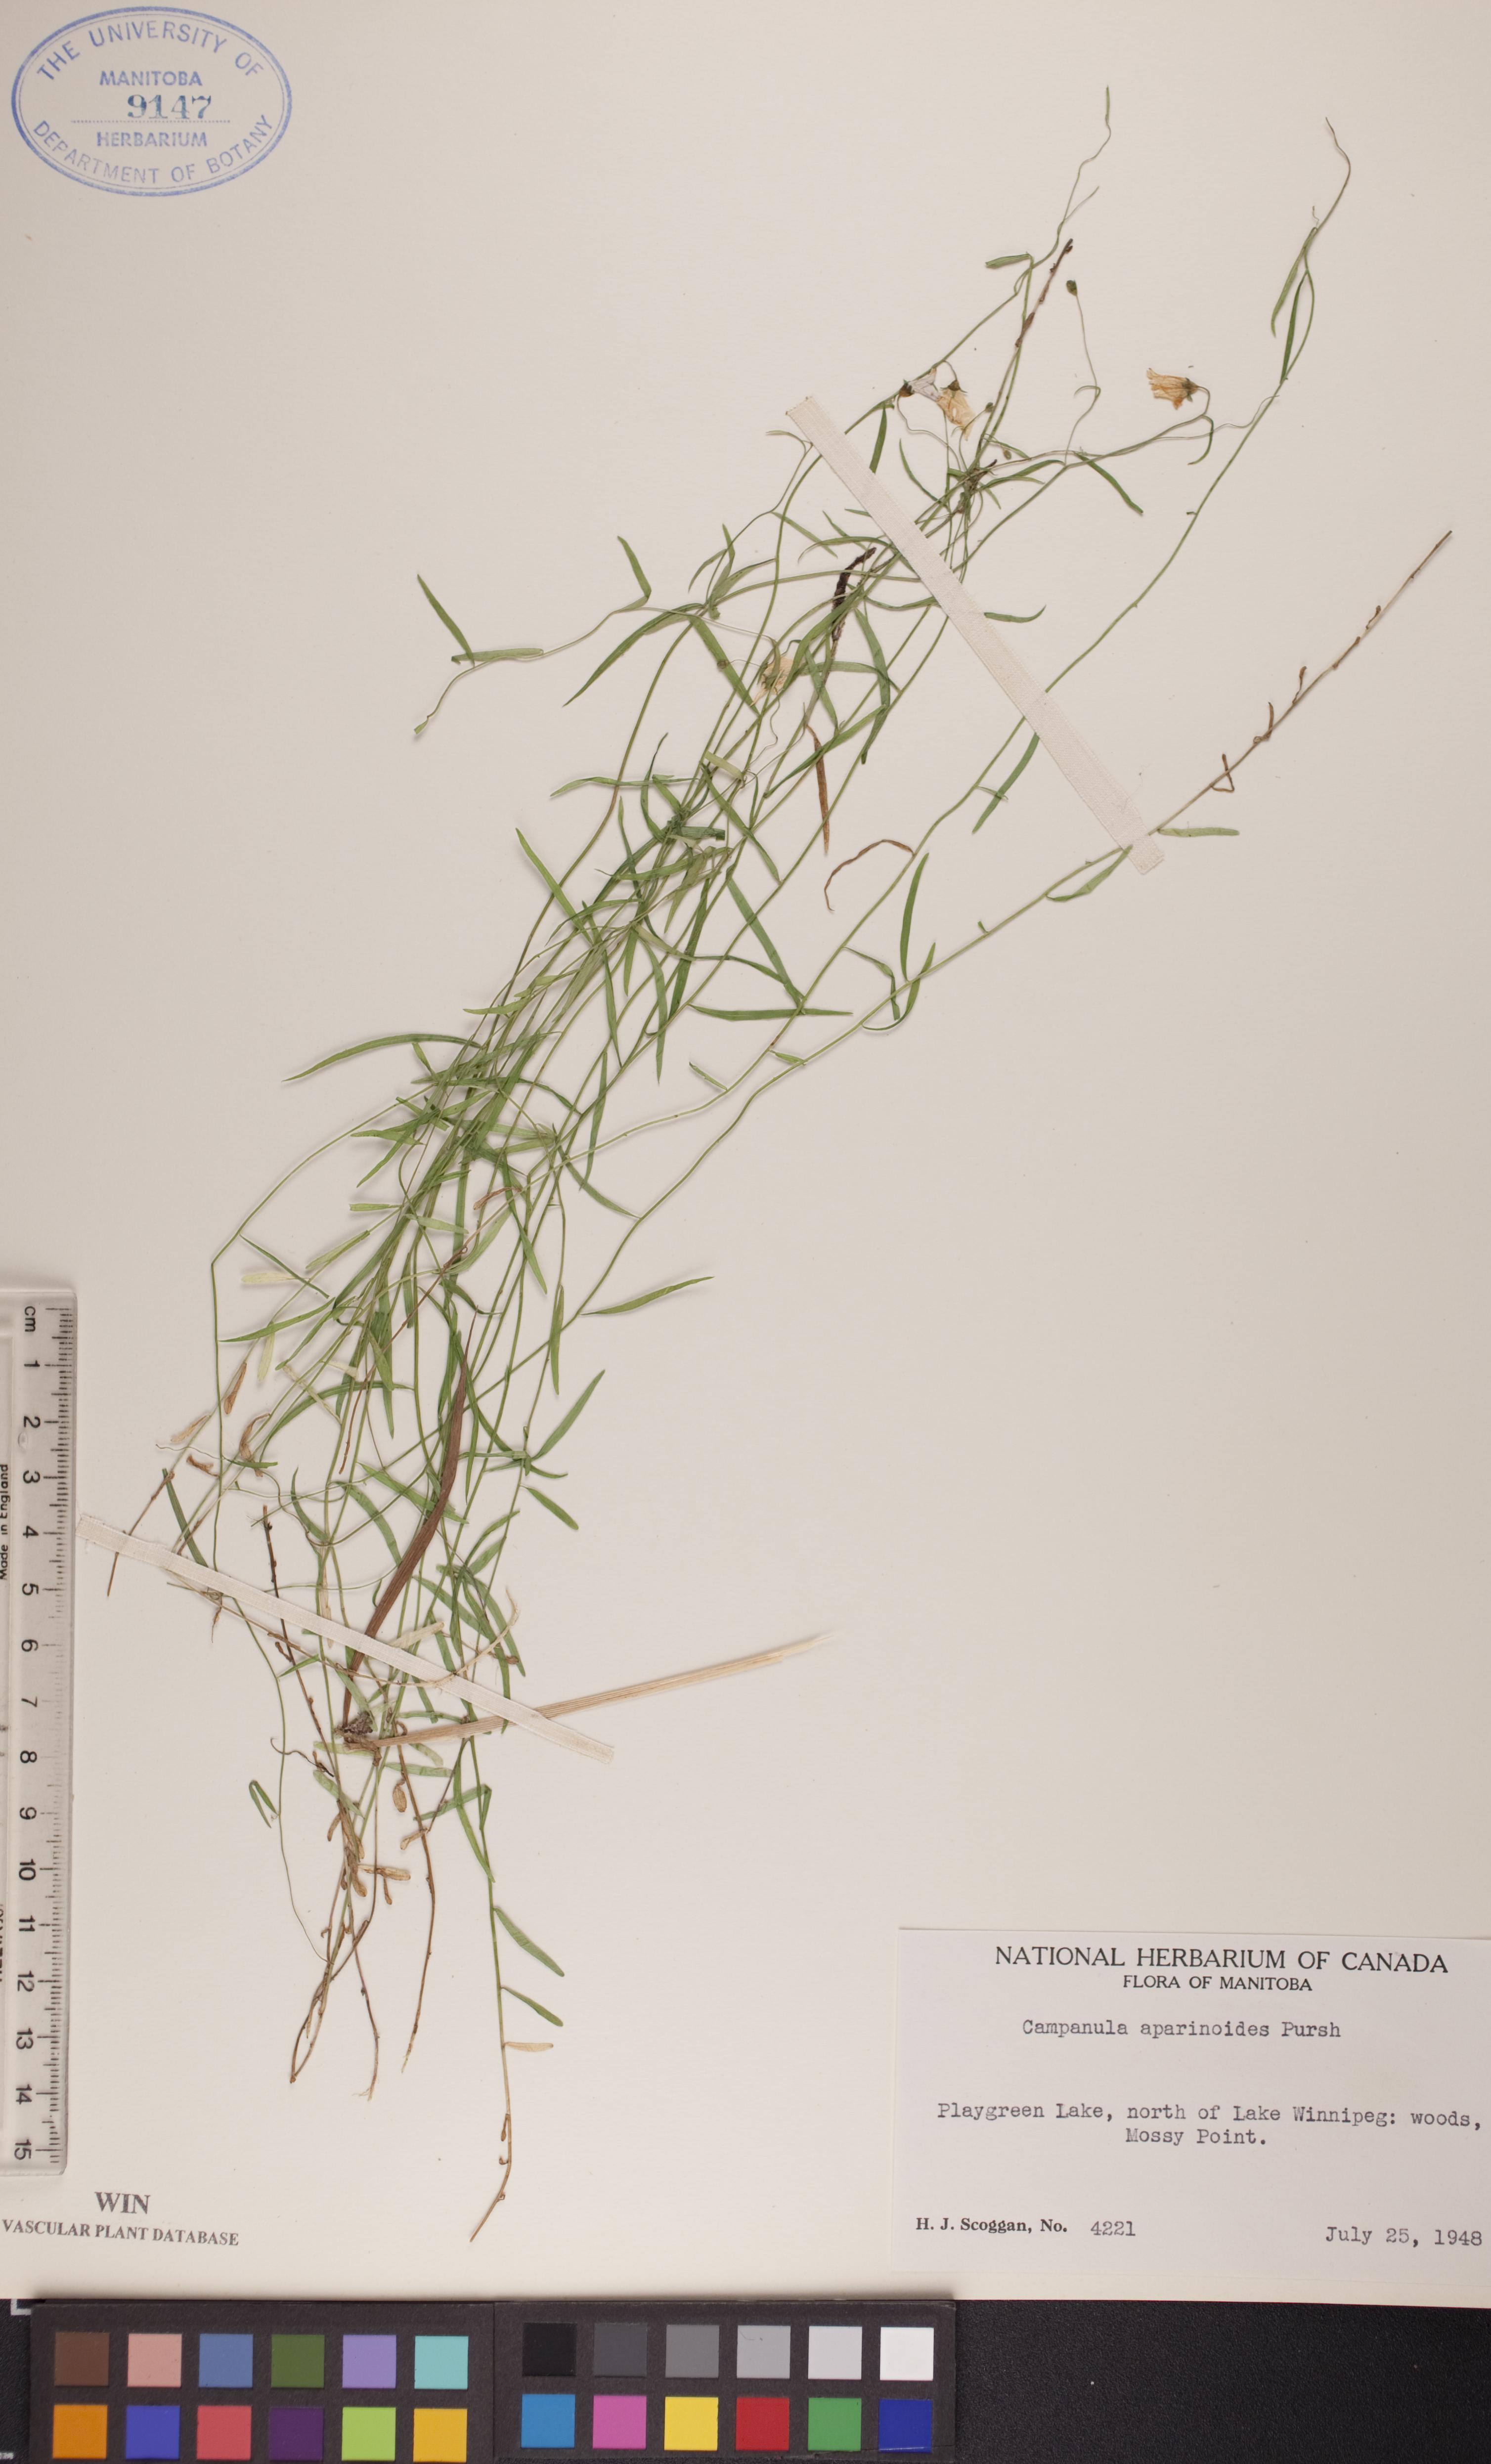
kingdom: Plantae
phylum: Tracheophyta
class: Magnoliopsida
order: Asterales
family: Campanulaceae
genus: Palustricodon
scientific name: Palustricodon aparinoides
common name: Bedstraw bellflower
